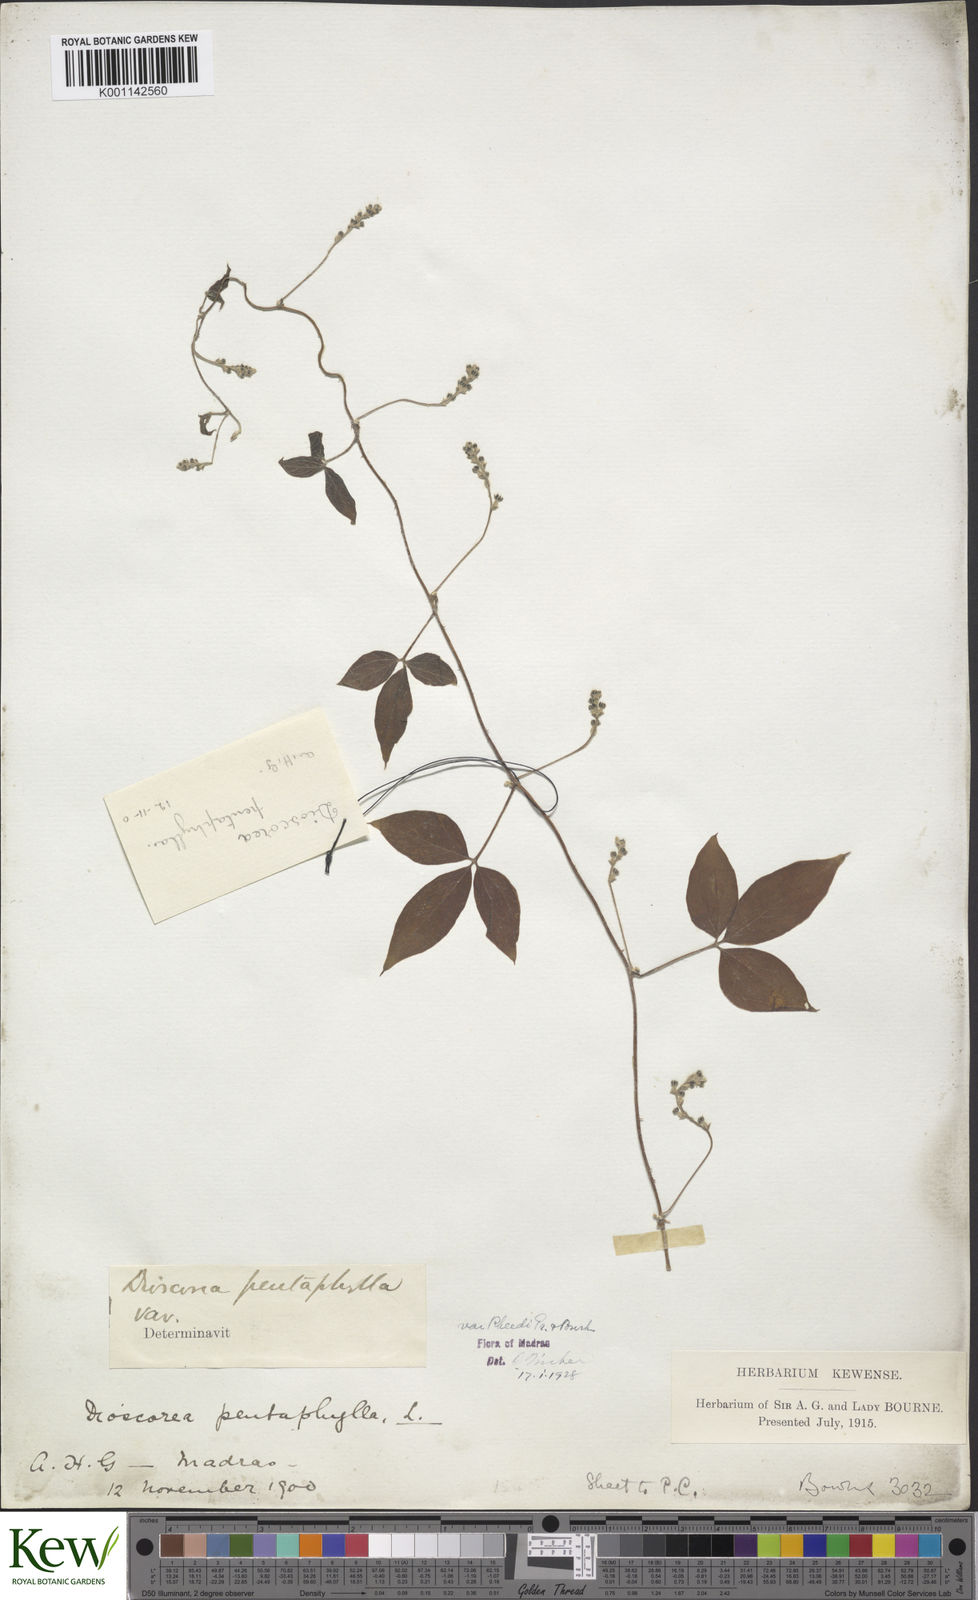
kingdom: Plantae
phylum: Tracheophyta
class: Liliopsida
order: Dioscoreales
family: Dioscoreaceae
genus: Dioscorea
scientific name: Dioscorea pentaphylla
